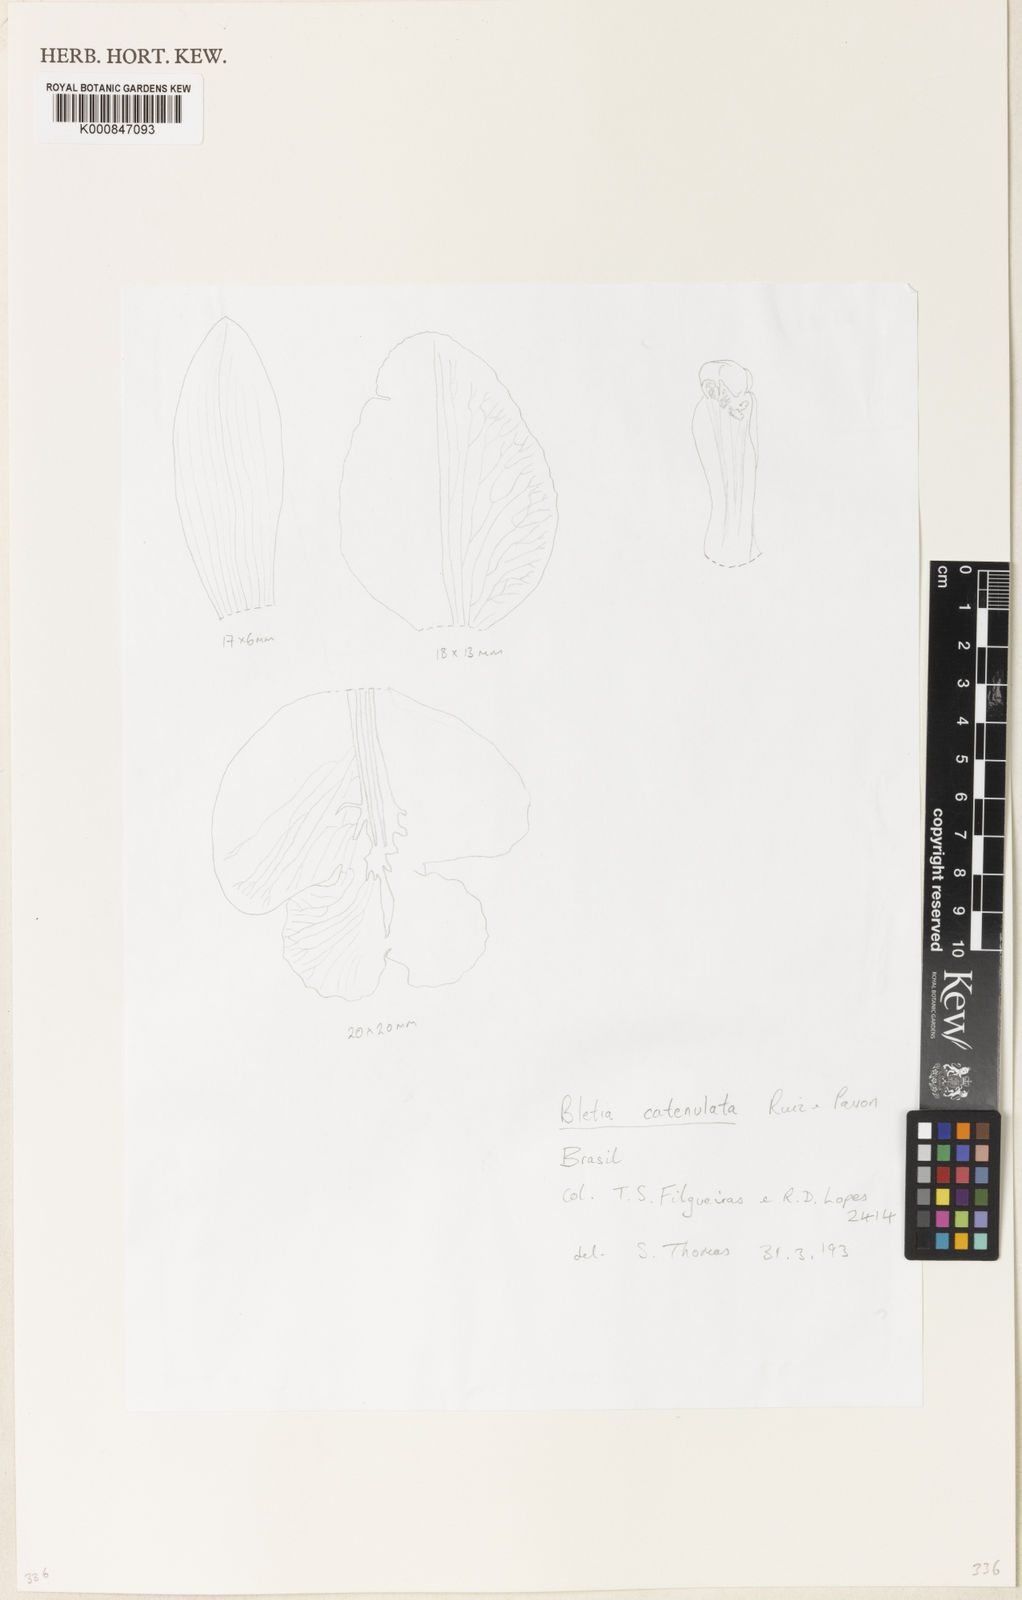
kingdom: Plantae
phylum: Tracheophyta
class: Liliopsida
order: Asparagales
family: Orchidaceae
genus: Bletia
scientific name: Bletia catenulata
